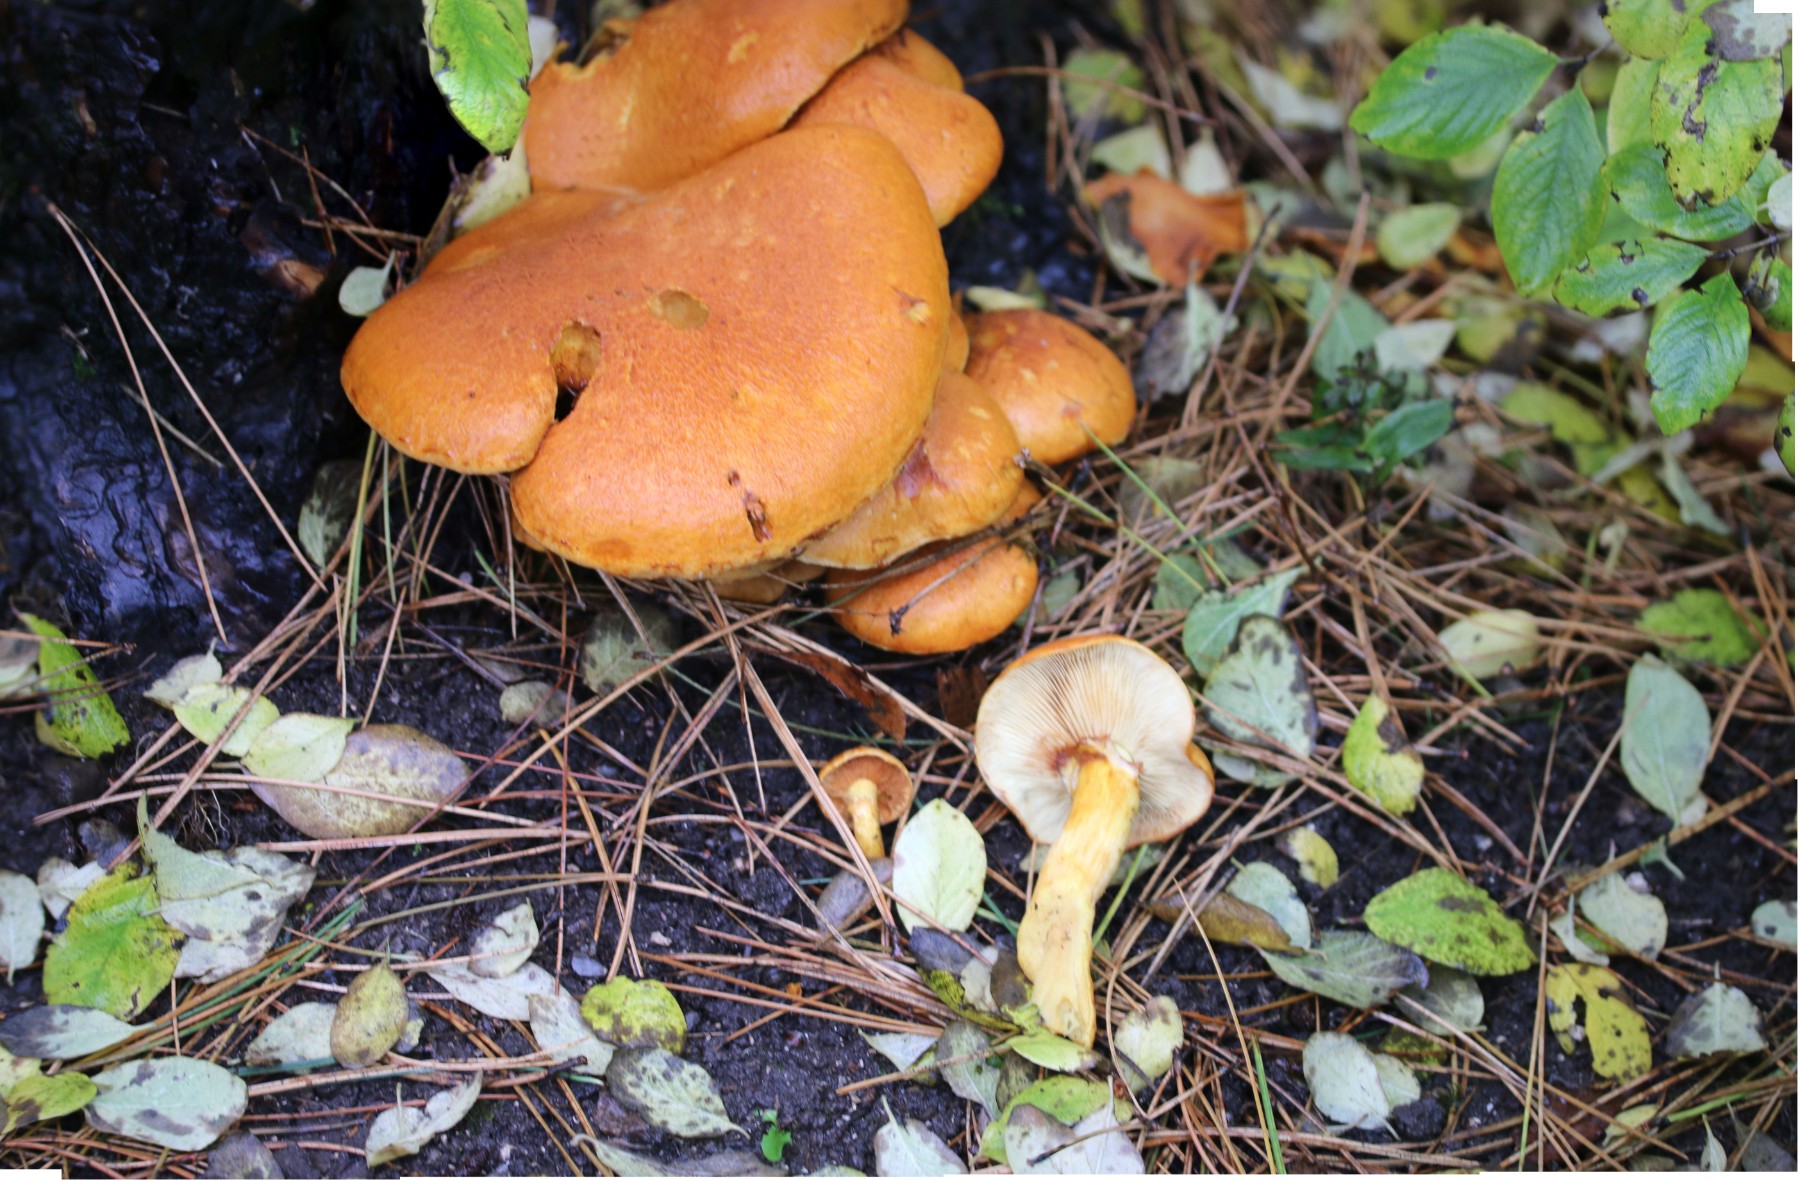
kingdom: Fungi
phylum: Basidiomycota
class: Agaricomycetes
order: Agaricales
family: Hymenogastraceae
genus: Gymnopilus
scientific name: Gymnopilus spectabilis
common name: fibret flammehat
